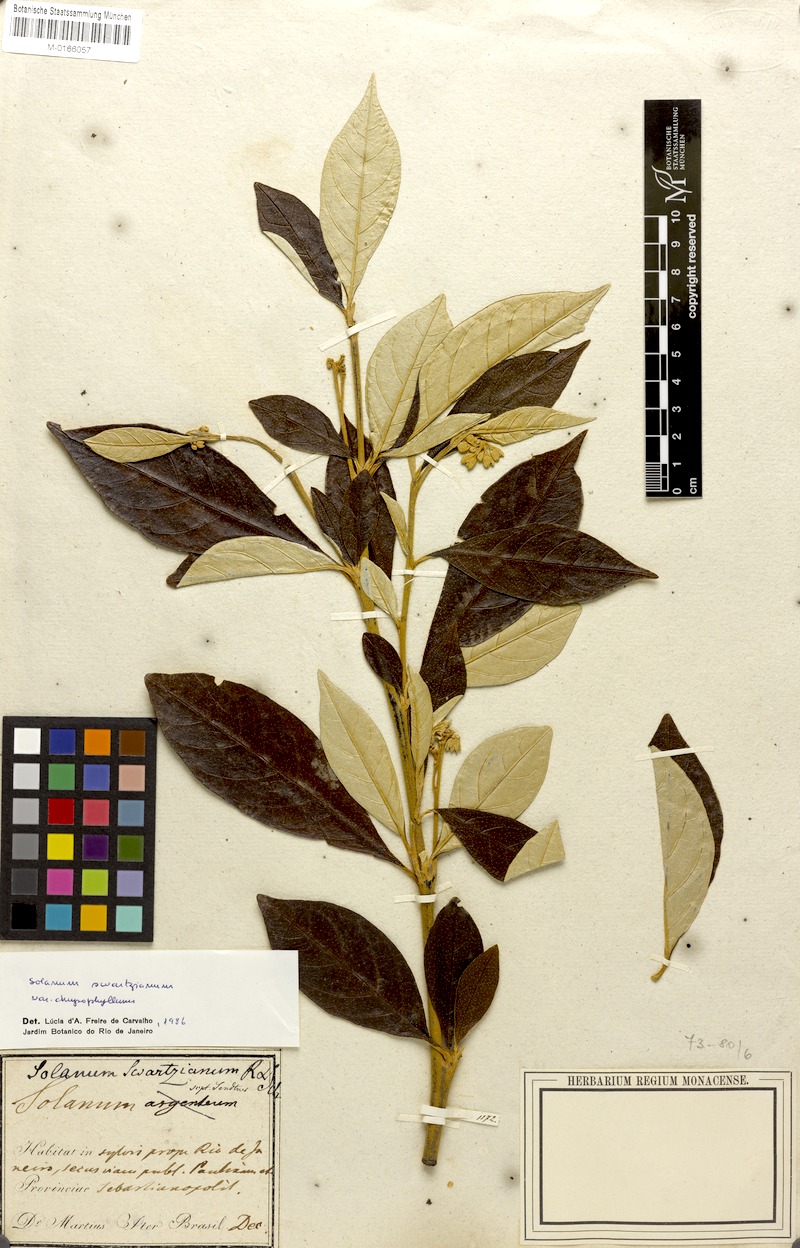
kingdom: Plantae
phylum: Tracheophyta
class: Magnoliopsida
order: Solanales
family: Solanaceae
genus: Solanum
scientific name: Solanum swartzianum
